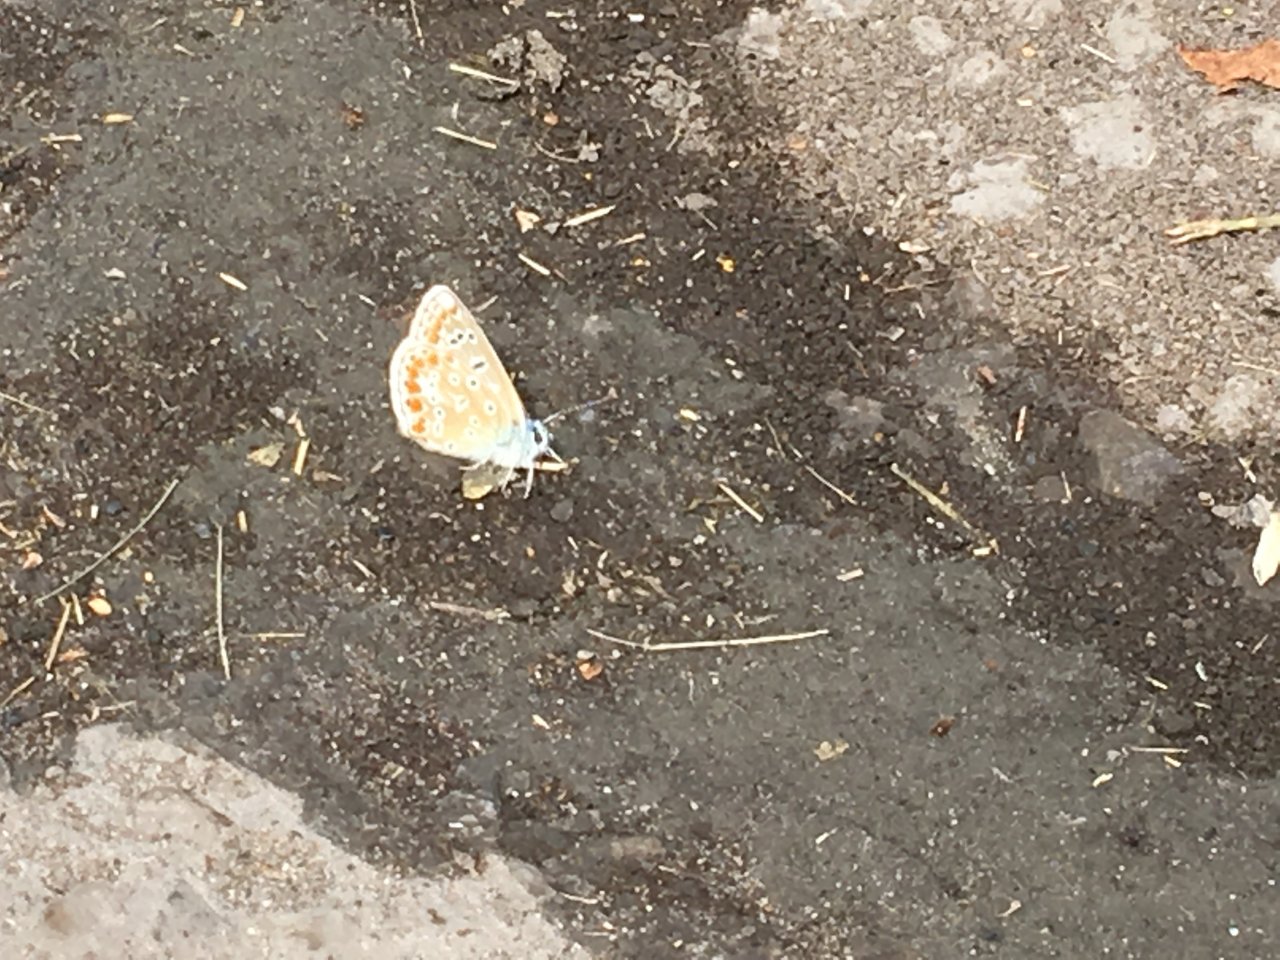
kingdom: Animalia
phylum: Arthropoda
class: Insecta
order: Lepidoptera
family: Lycaenidae
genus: Polyommatus
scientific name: Polyommatus icarus
